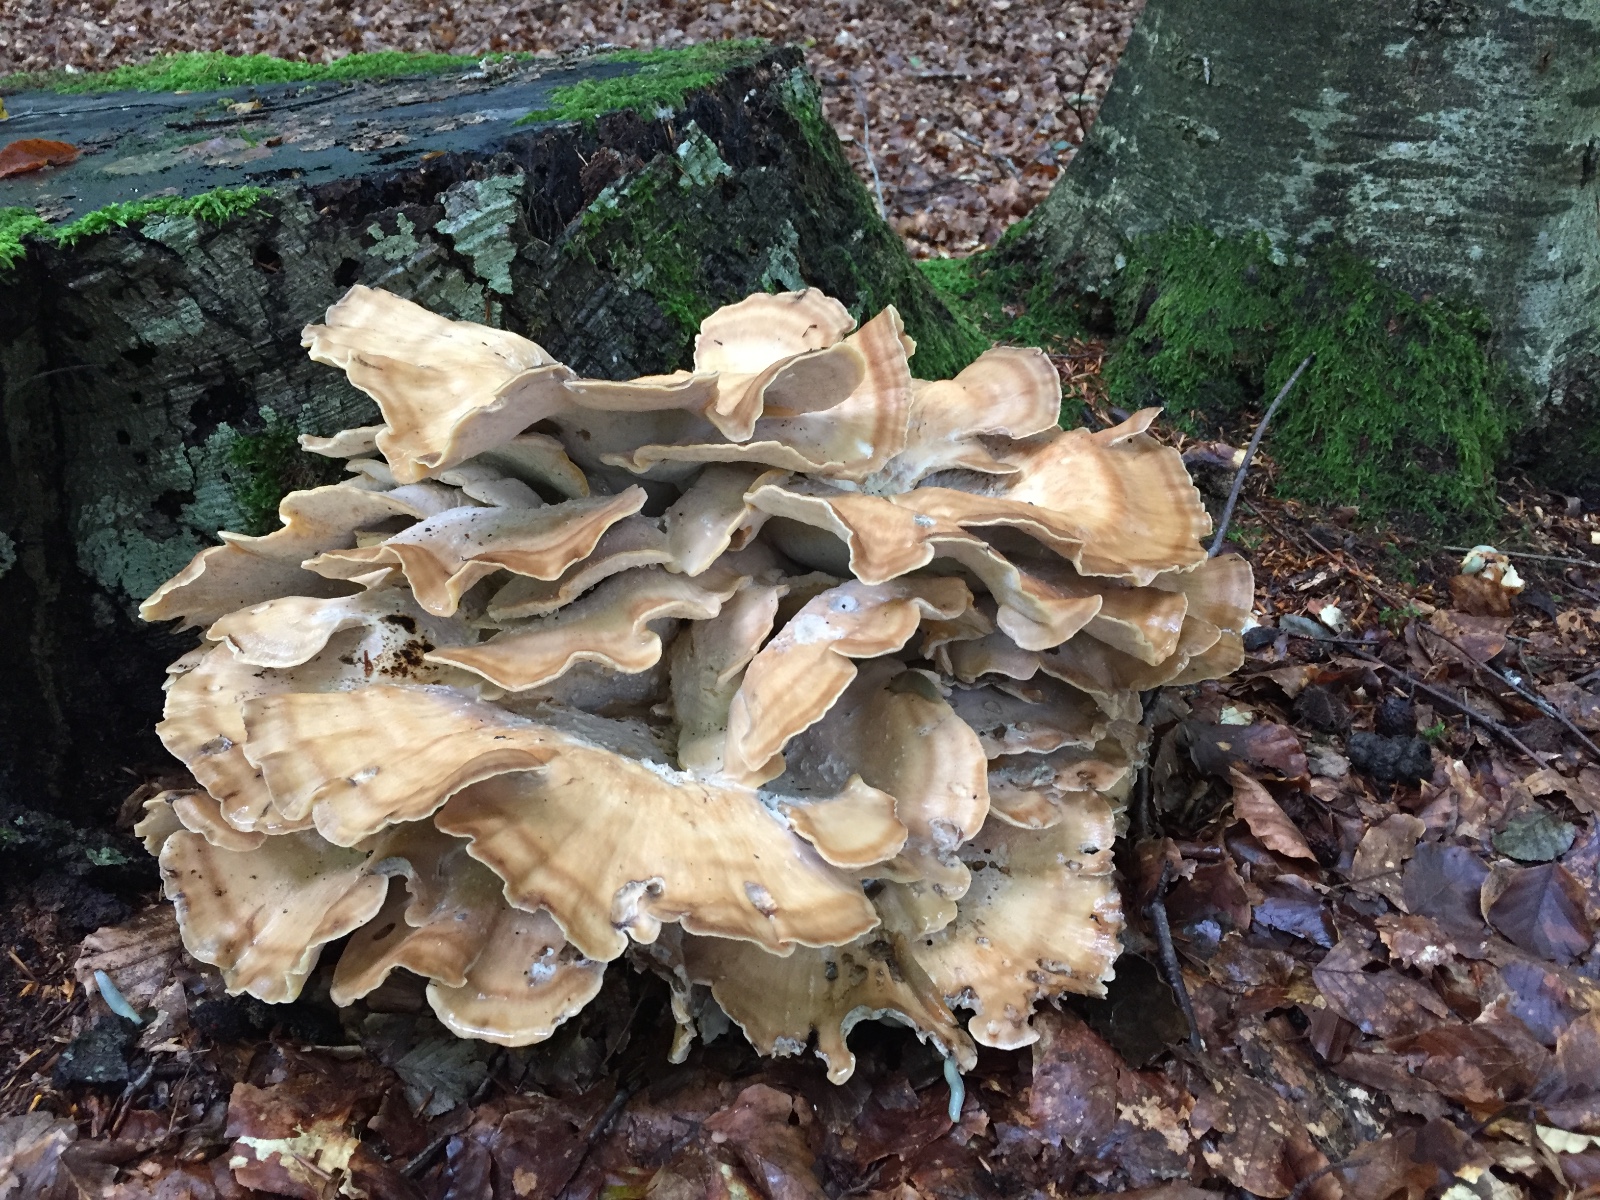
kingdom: Fungi
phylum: Basidiomycota
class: Agaricomycetes
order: Polyporales
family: Meripilaceae
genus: Meripilus
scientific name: Meripilus giganteus
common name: kæmpeporesvamp
